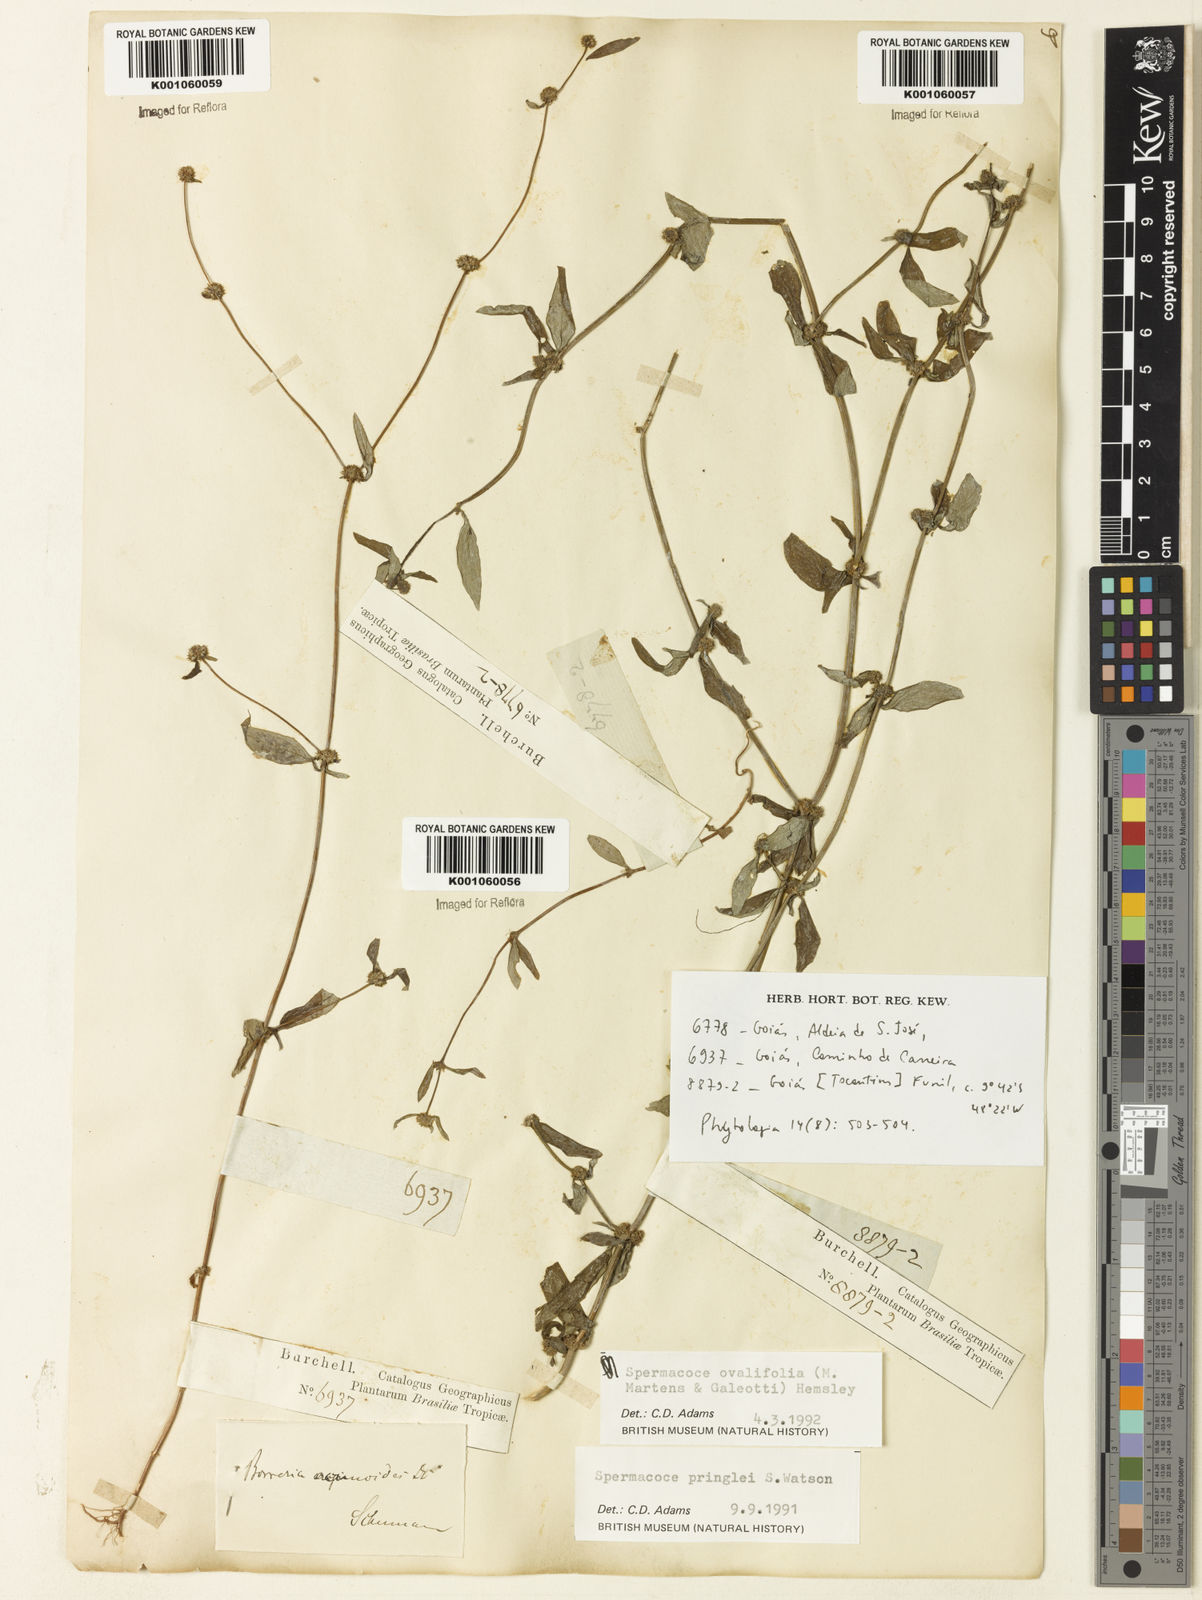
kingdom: Plantae
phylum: Tracheophyta
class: Magnoliopsida
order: Gentianales
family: Rubiaceae
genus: Spermacoce
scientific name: Spermacoce ovalifolia
